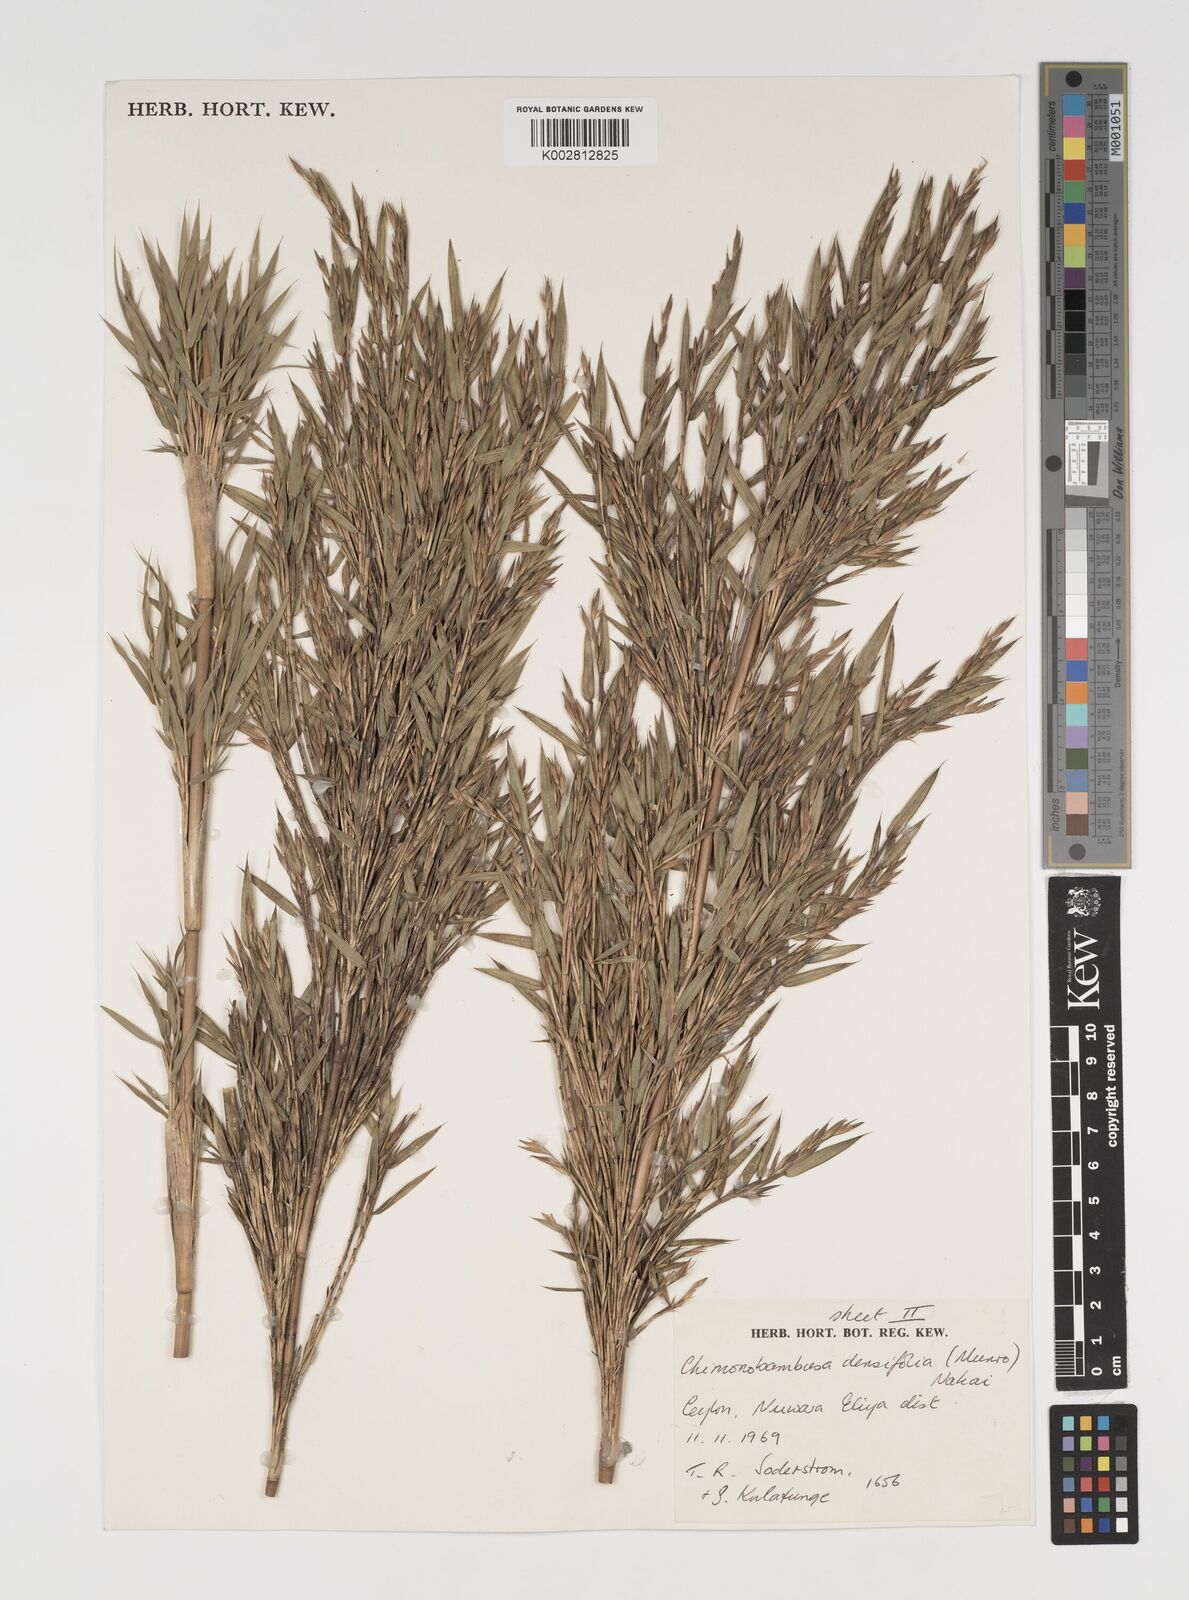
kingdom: Plantae
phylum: Tracheophyta
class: Liliopsida
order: Poales
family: Poaceae
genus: Brachystachyum
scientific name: Brachystachyum densiflorum
